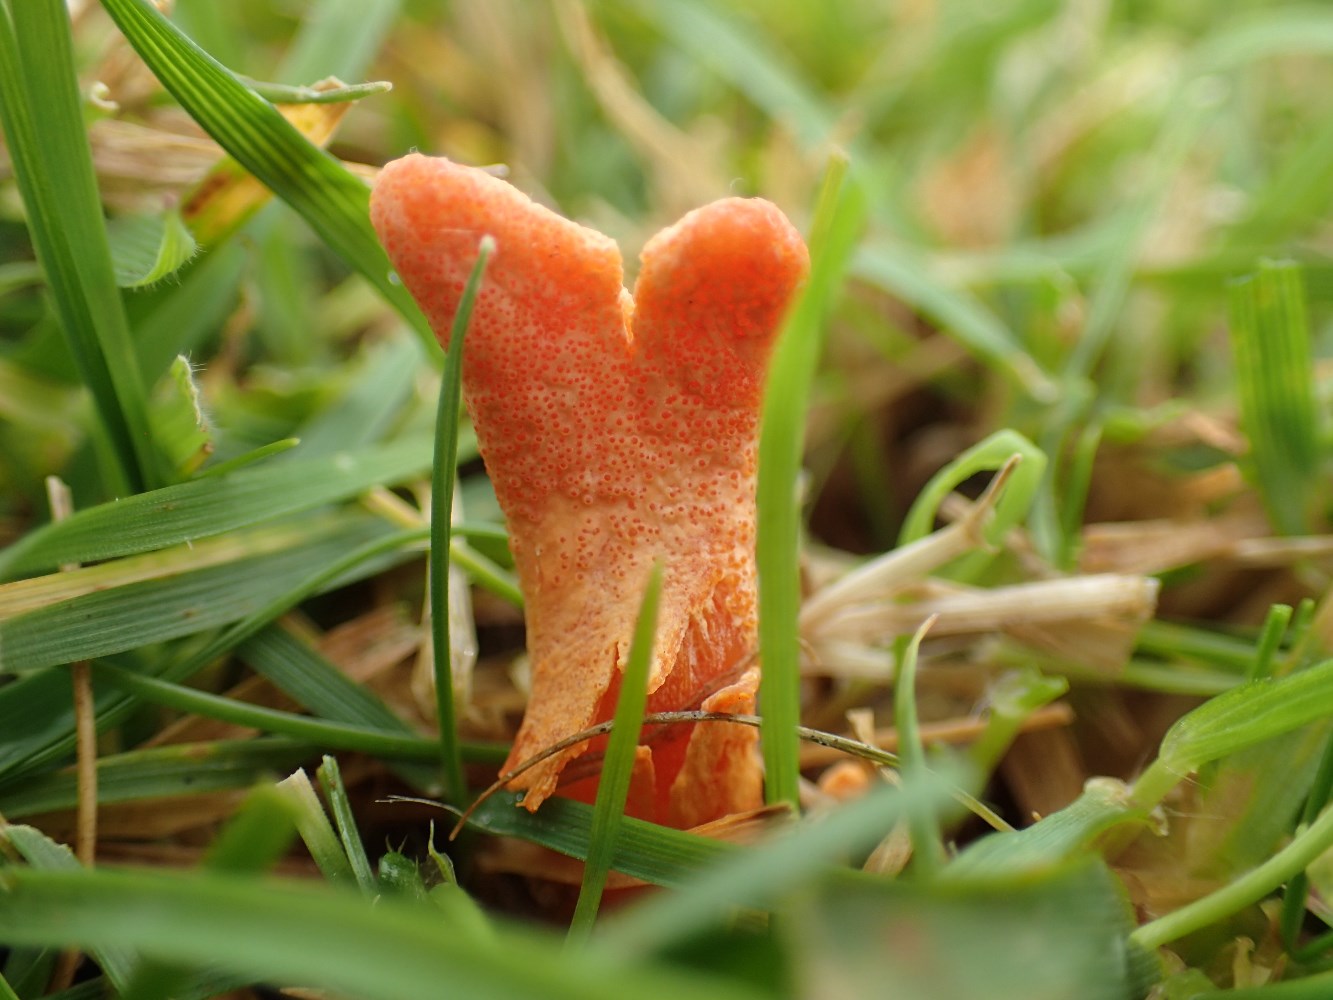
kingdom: Fungi
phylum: Ascomycota
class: Sordariomycetes
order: Hypocreales
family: Cordycipitaceae
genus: Cordyceps
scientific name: Cordyceps militaris
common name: puppe-snyltekølle
